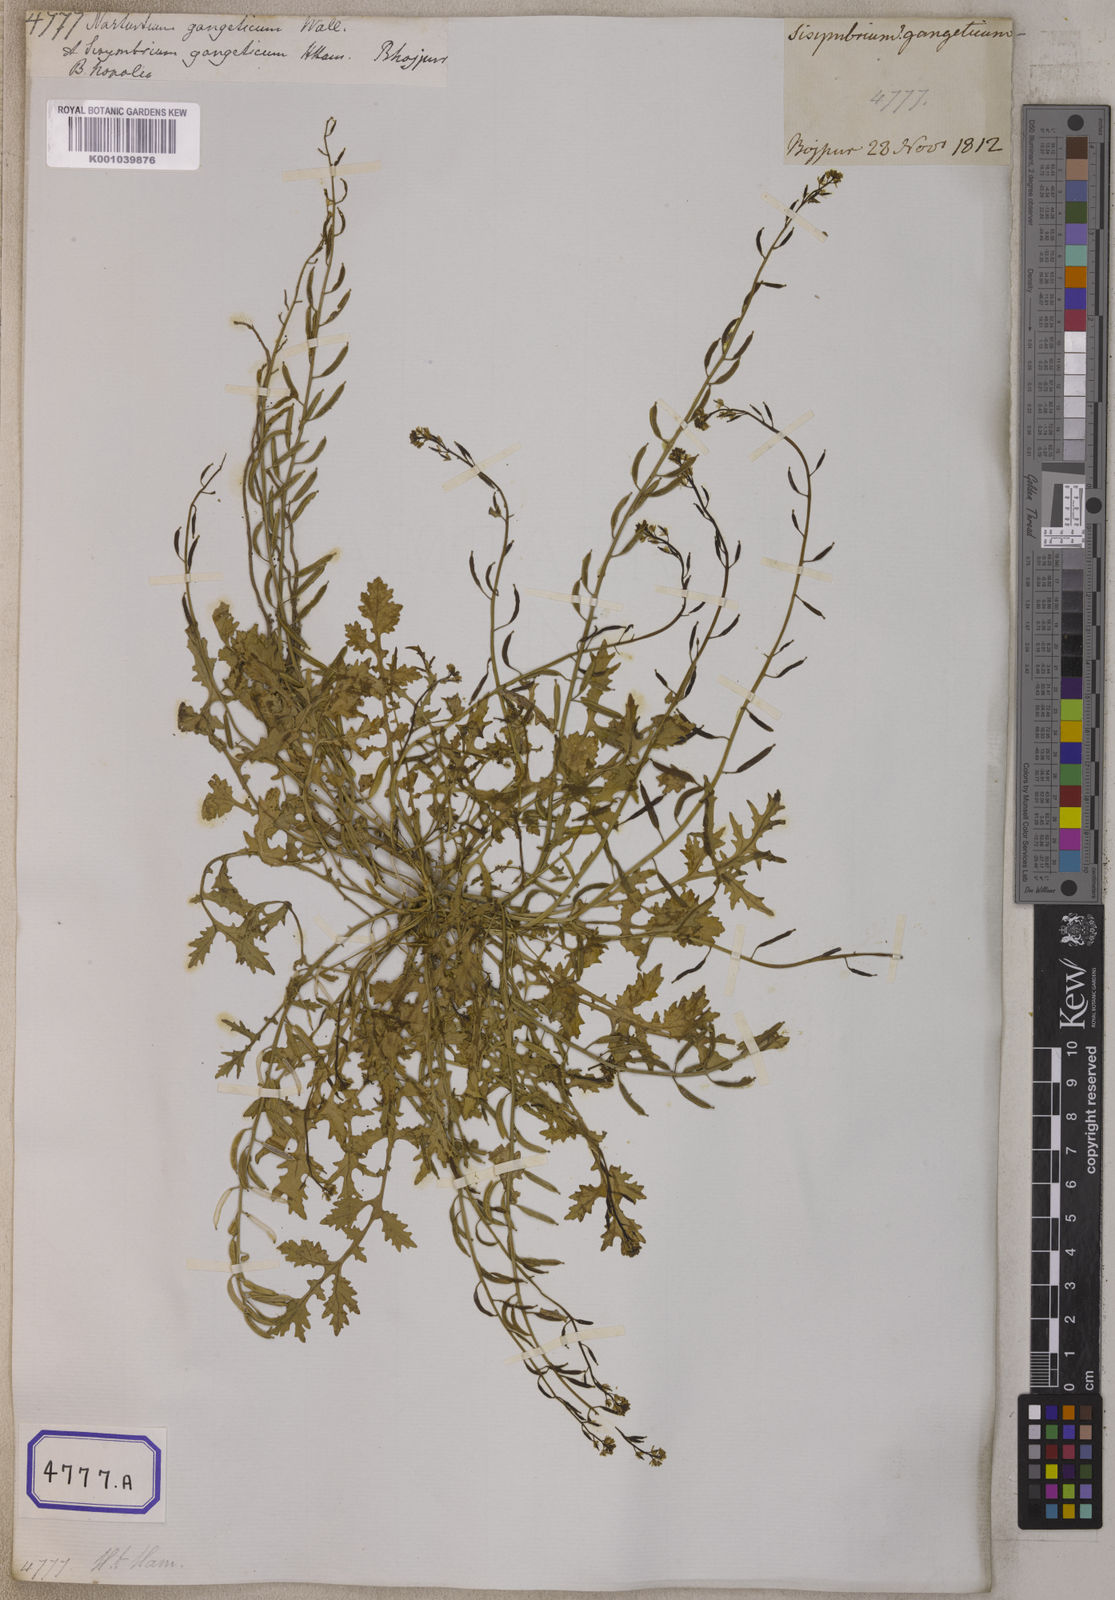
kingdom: Plantae
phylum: Tracheophyta
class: Magnoliopsida
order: Brassicales
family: Brassicaceae
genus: Nasturtium
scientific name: Nasturtium
